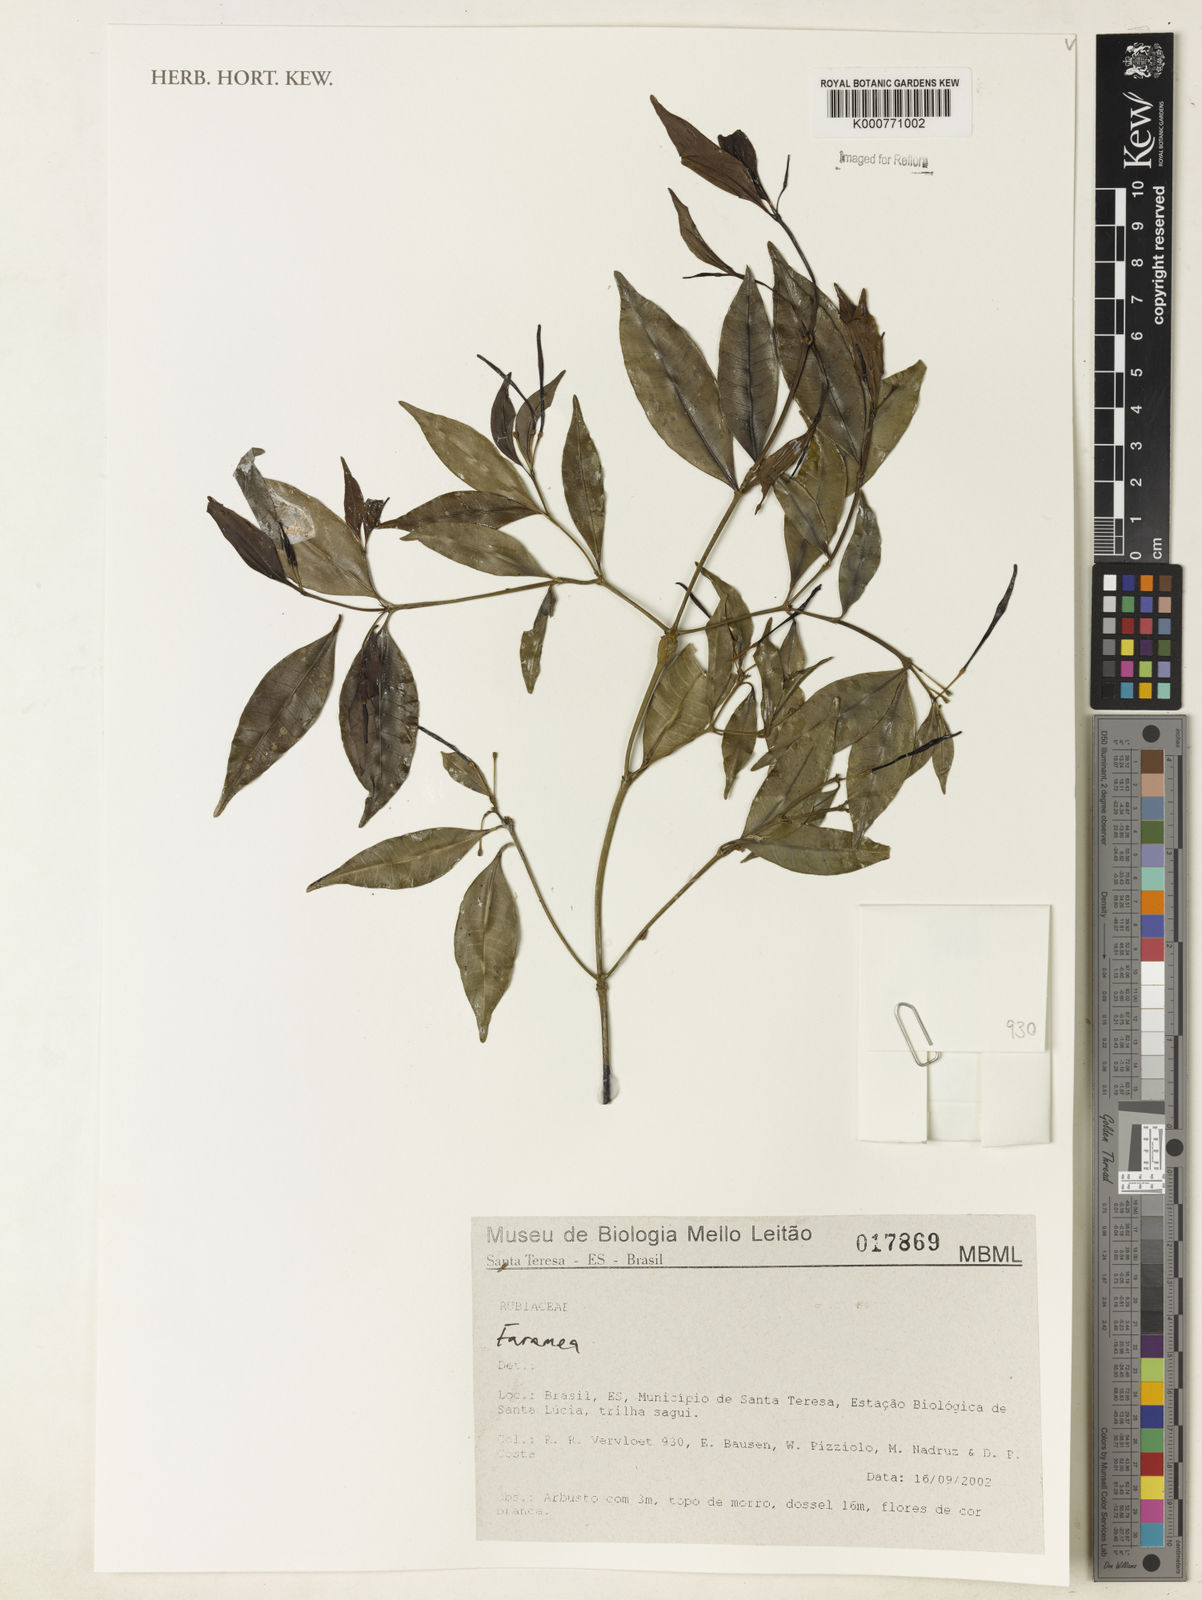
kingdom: Plantae
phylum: Tracheophyta
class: Magnoliopsida
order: Gentianales
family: Rubiaceae
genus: Faramea
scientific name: Faramea
